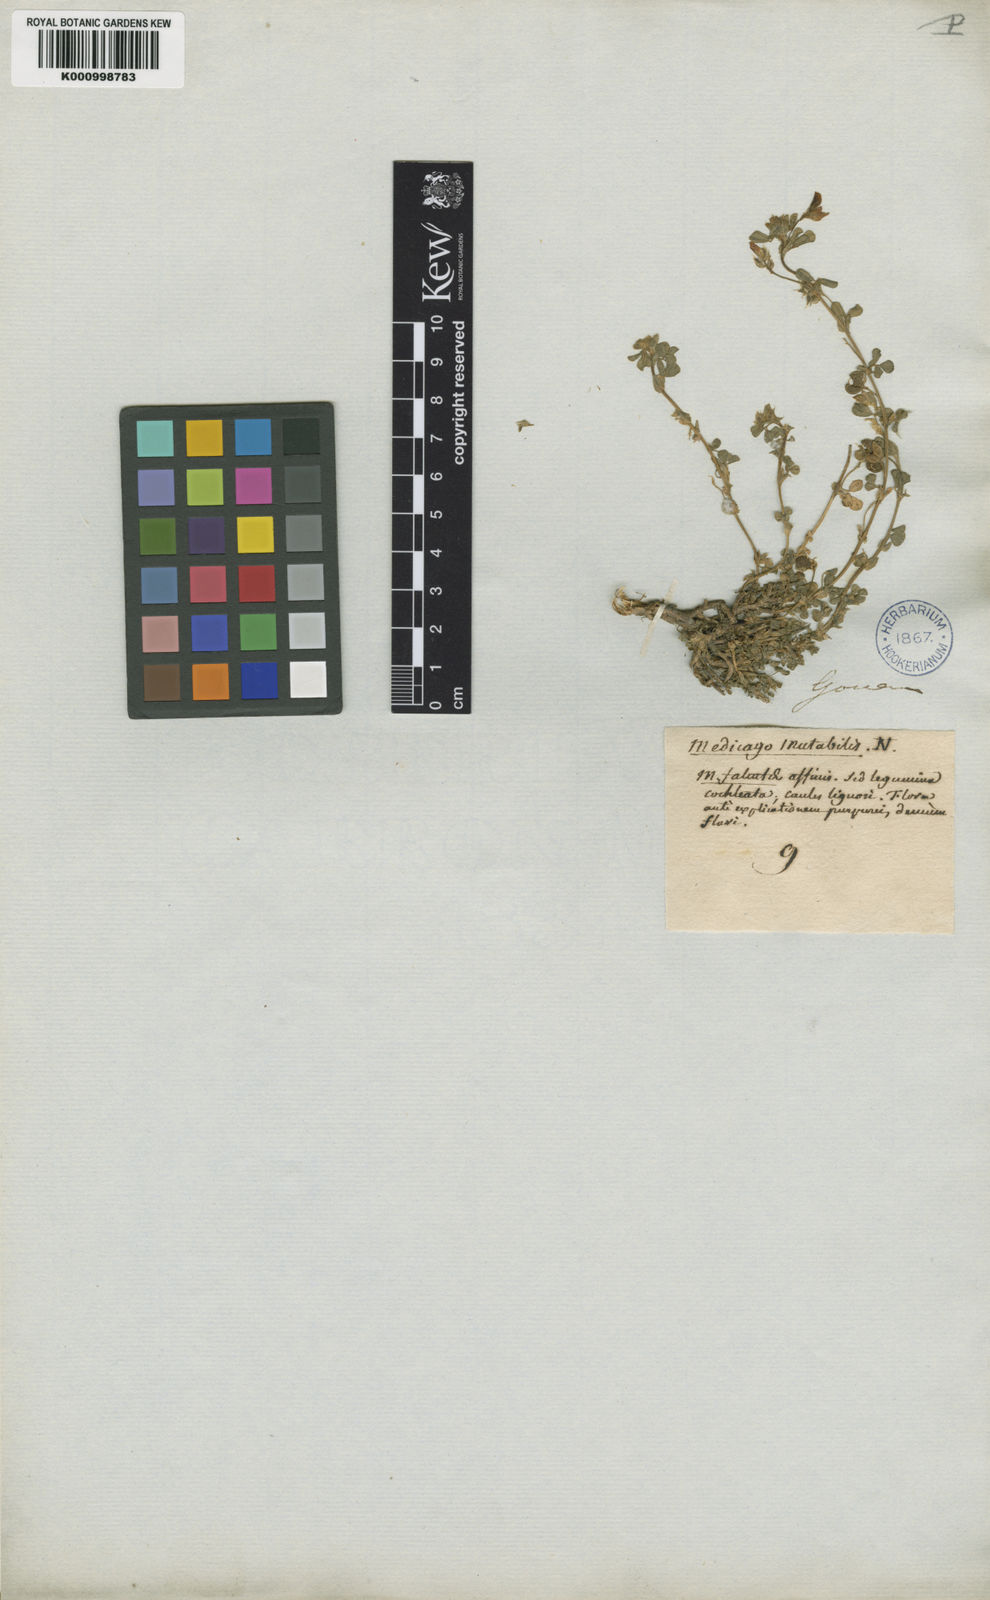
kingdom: Plantae
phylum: Tracheophyta
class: Magnoliopsida
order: Fabales
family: Fabaceae
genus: Medicago
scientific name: Medicago suffruticosa
